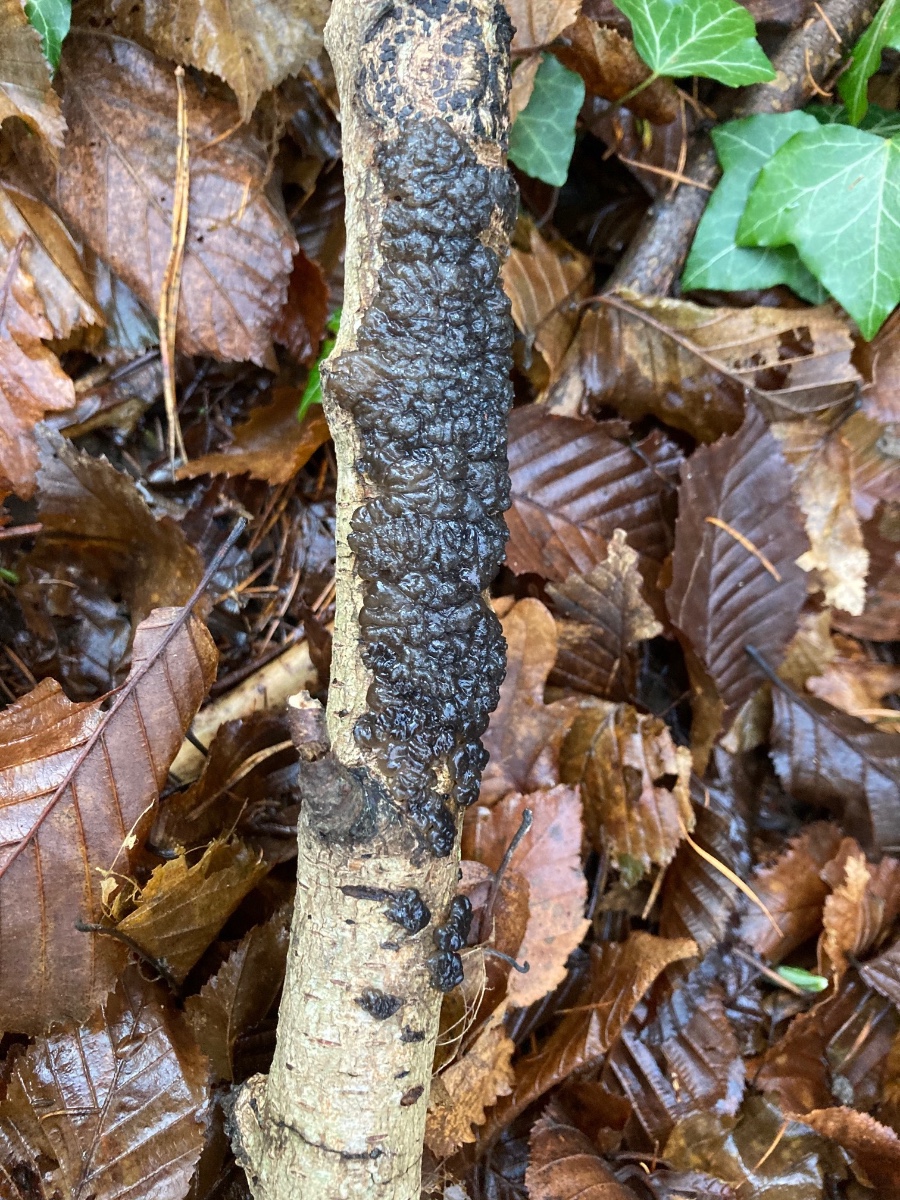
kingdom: Fungi
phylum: Basidiomycota
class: Agaricomycetes
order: Auriculariales
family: Auriculariaceae
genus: Exidia
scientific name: Exidia nigricans
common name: almindelig bævretop
